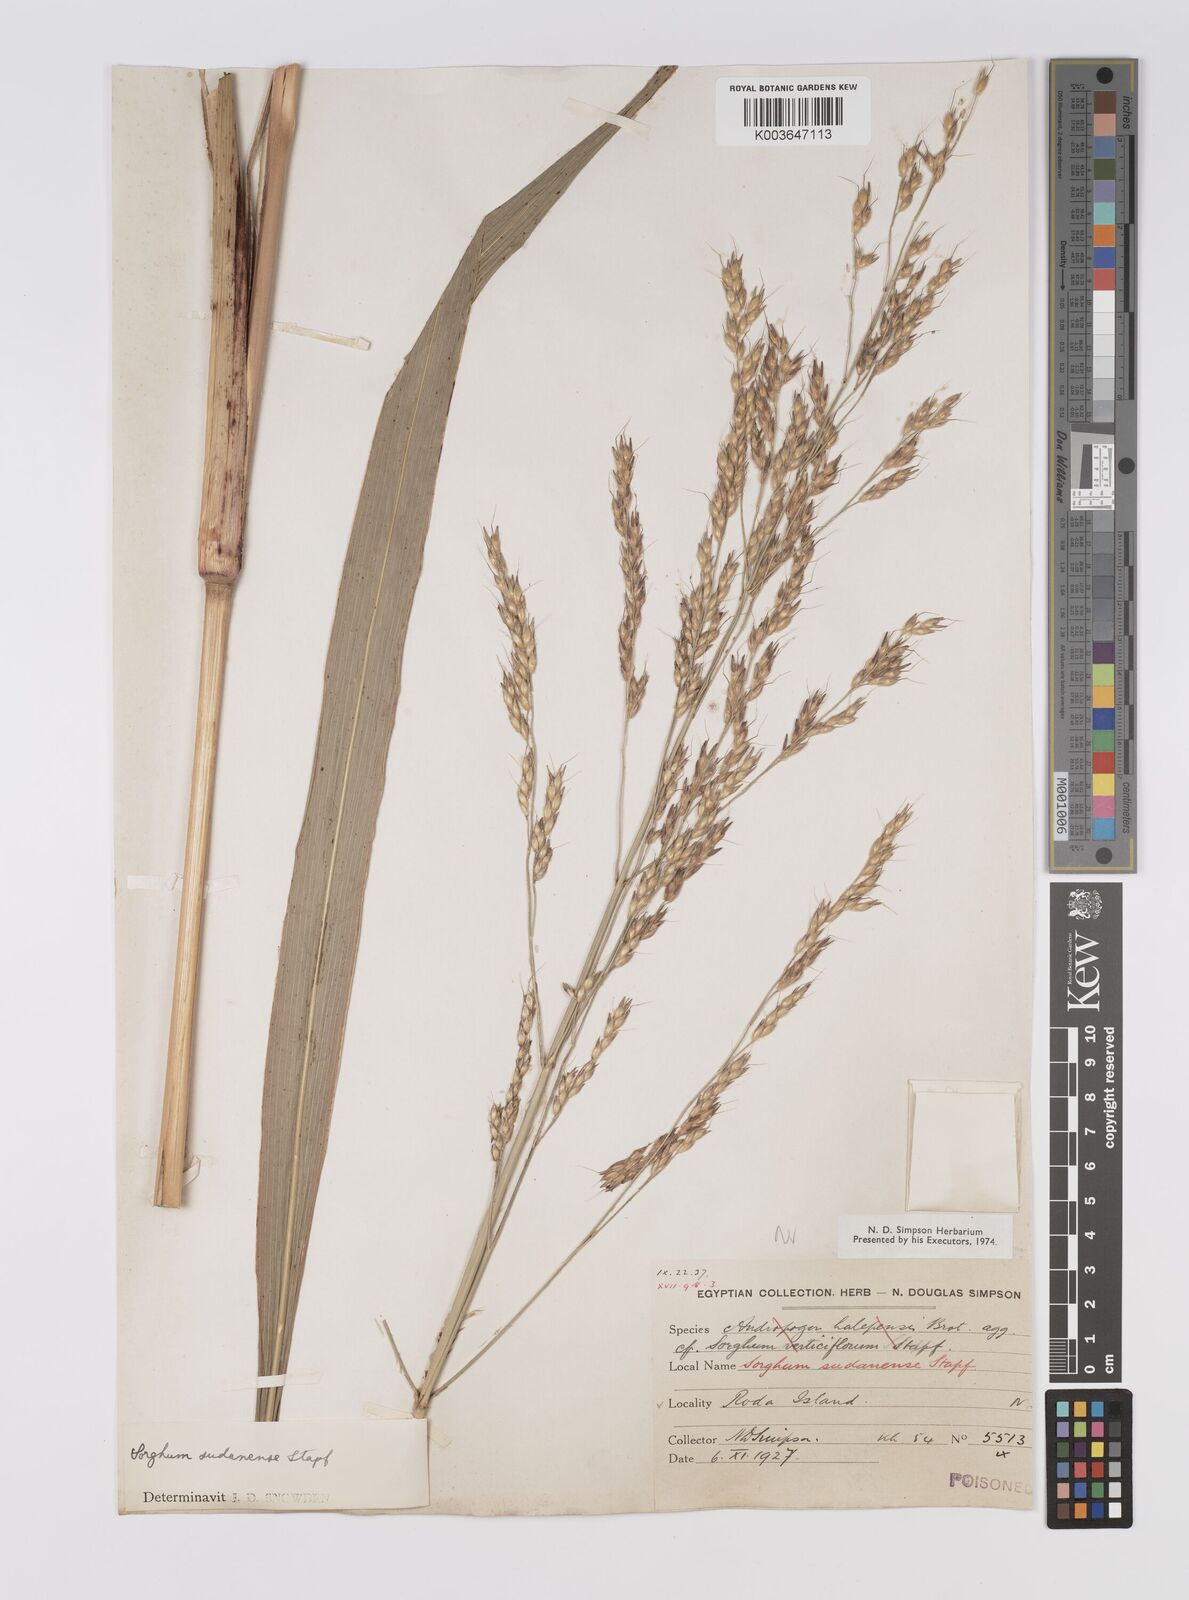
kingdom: Plantae
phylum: Tracheophyta
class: Liliopsida
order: Poales
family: Poaceae
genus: Sorghum
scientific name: Sorghum drummondii
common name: Sudangrass
